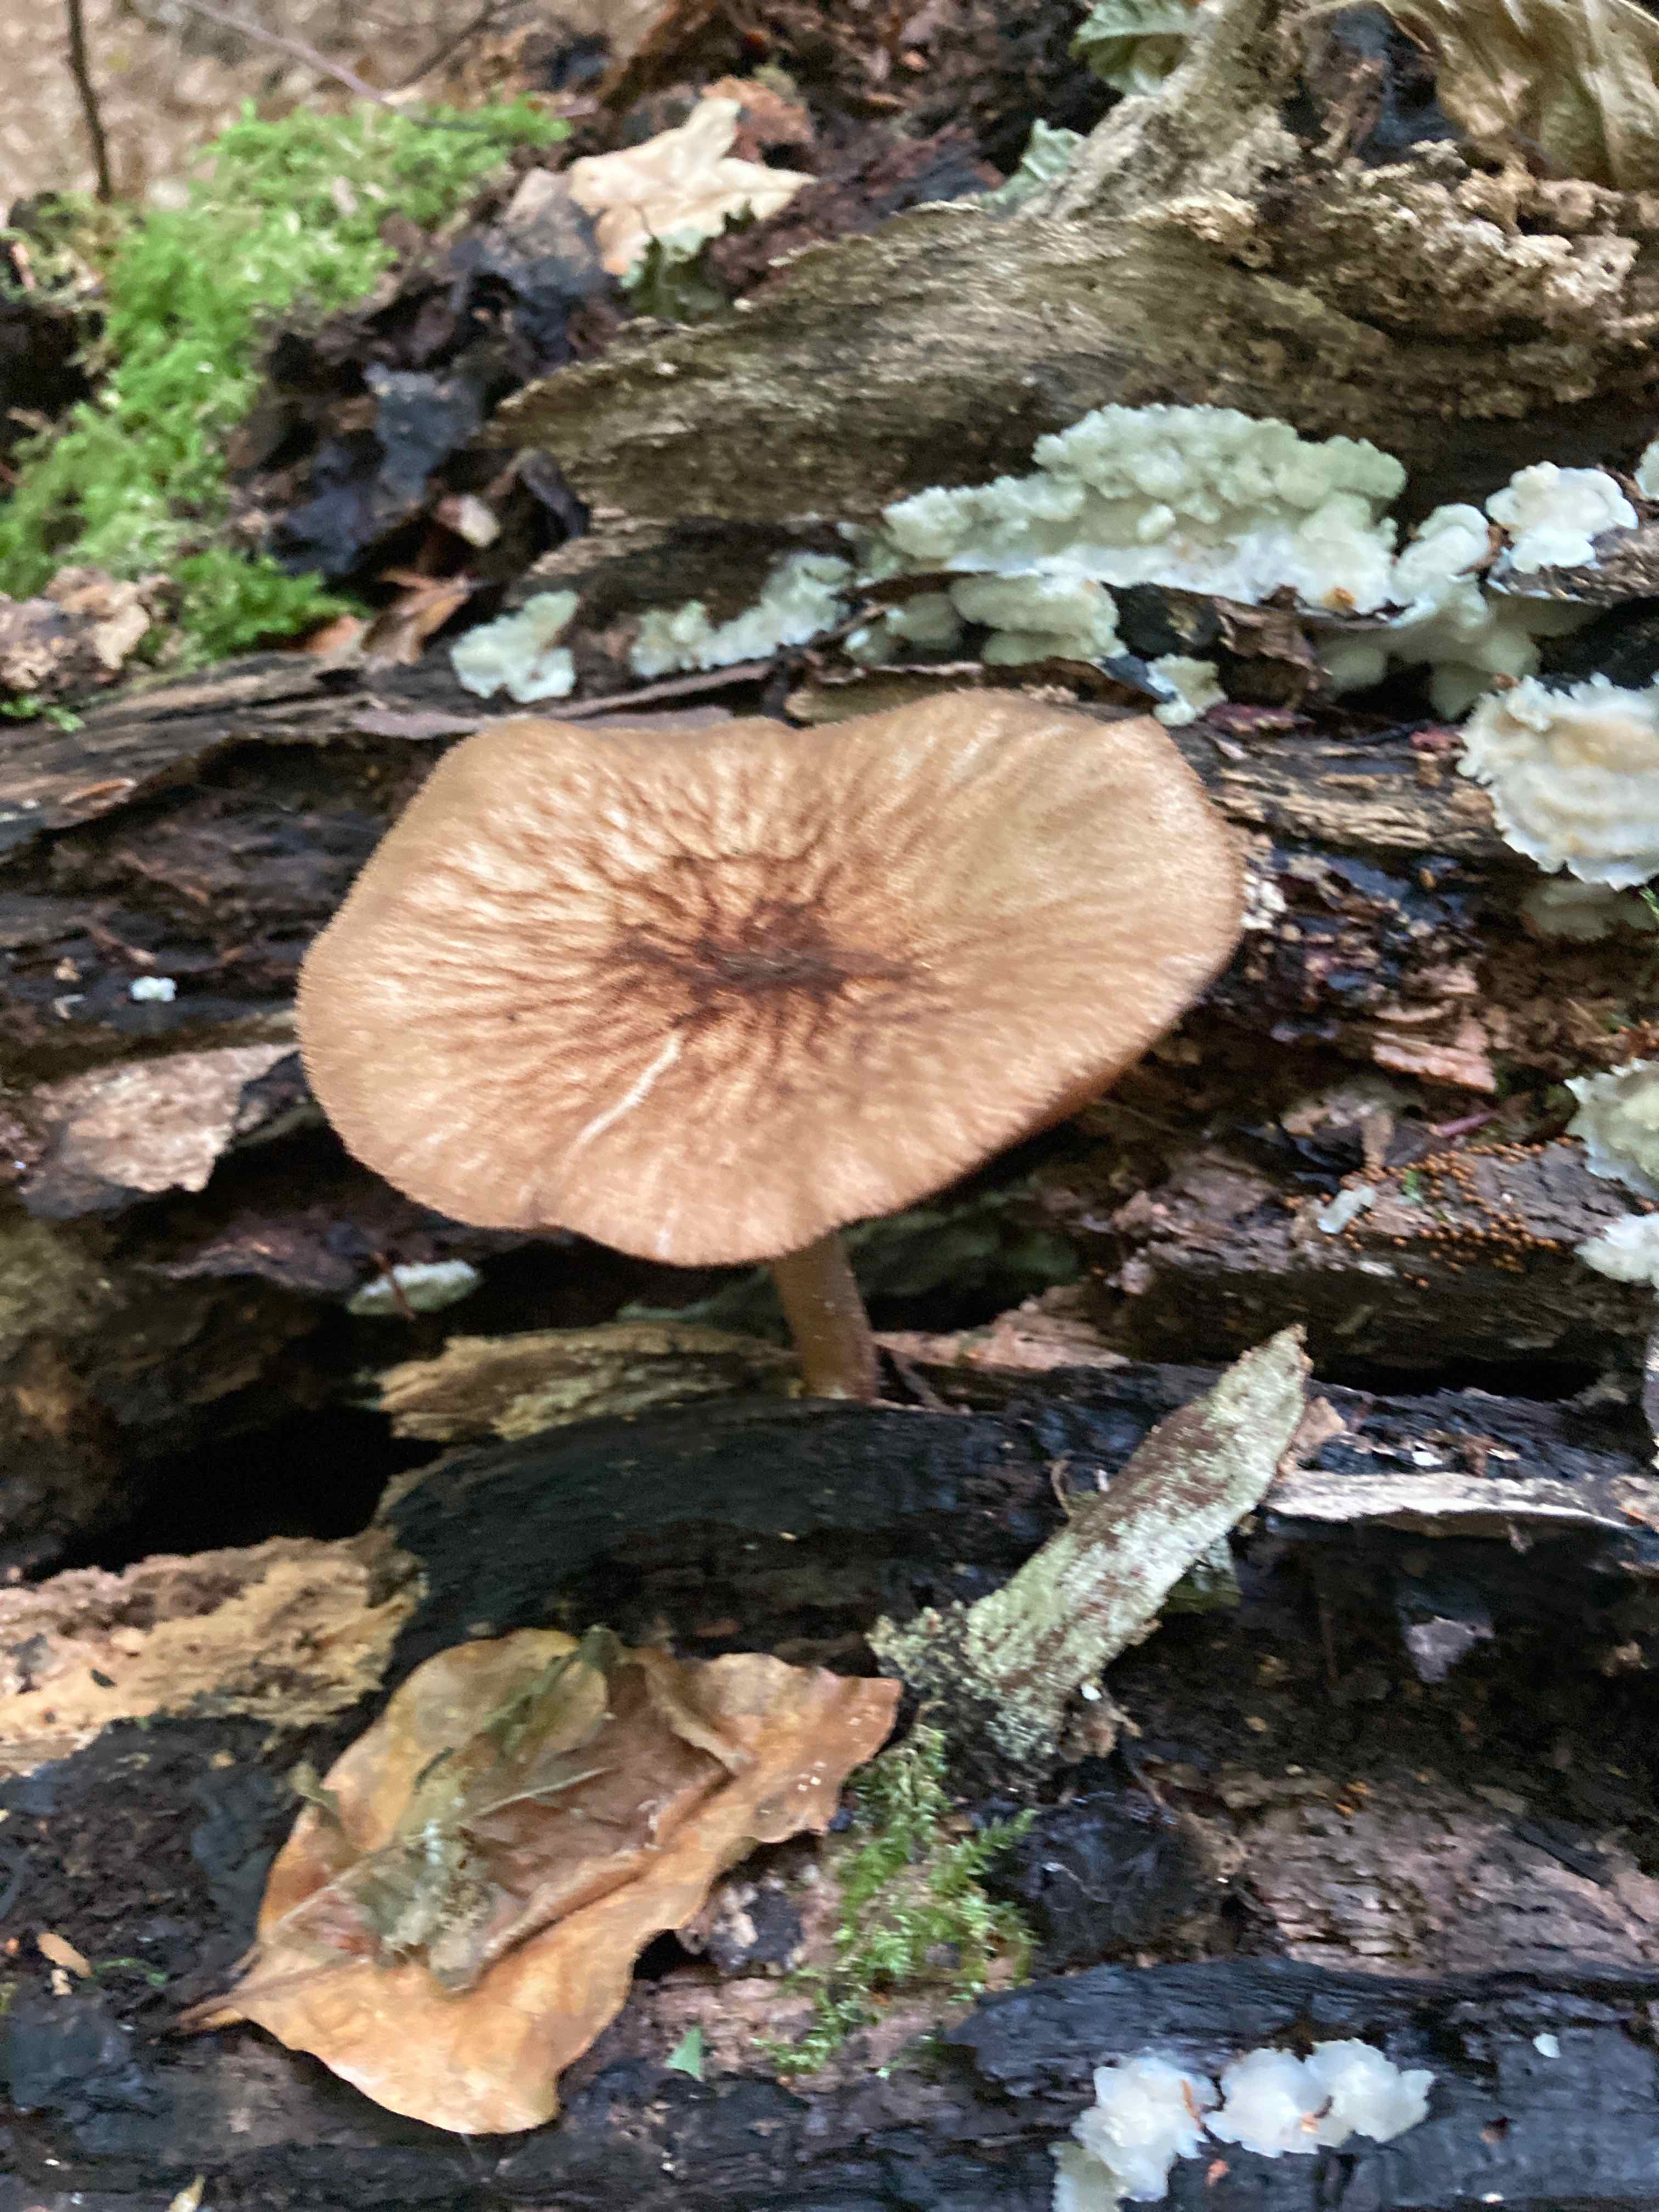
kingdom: Fungi
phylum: Basidiomycota
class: Agaricomycetes
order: Agaricales
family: Pluteaceae
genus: Pluteus
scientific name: Pluteus umbrosus
